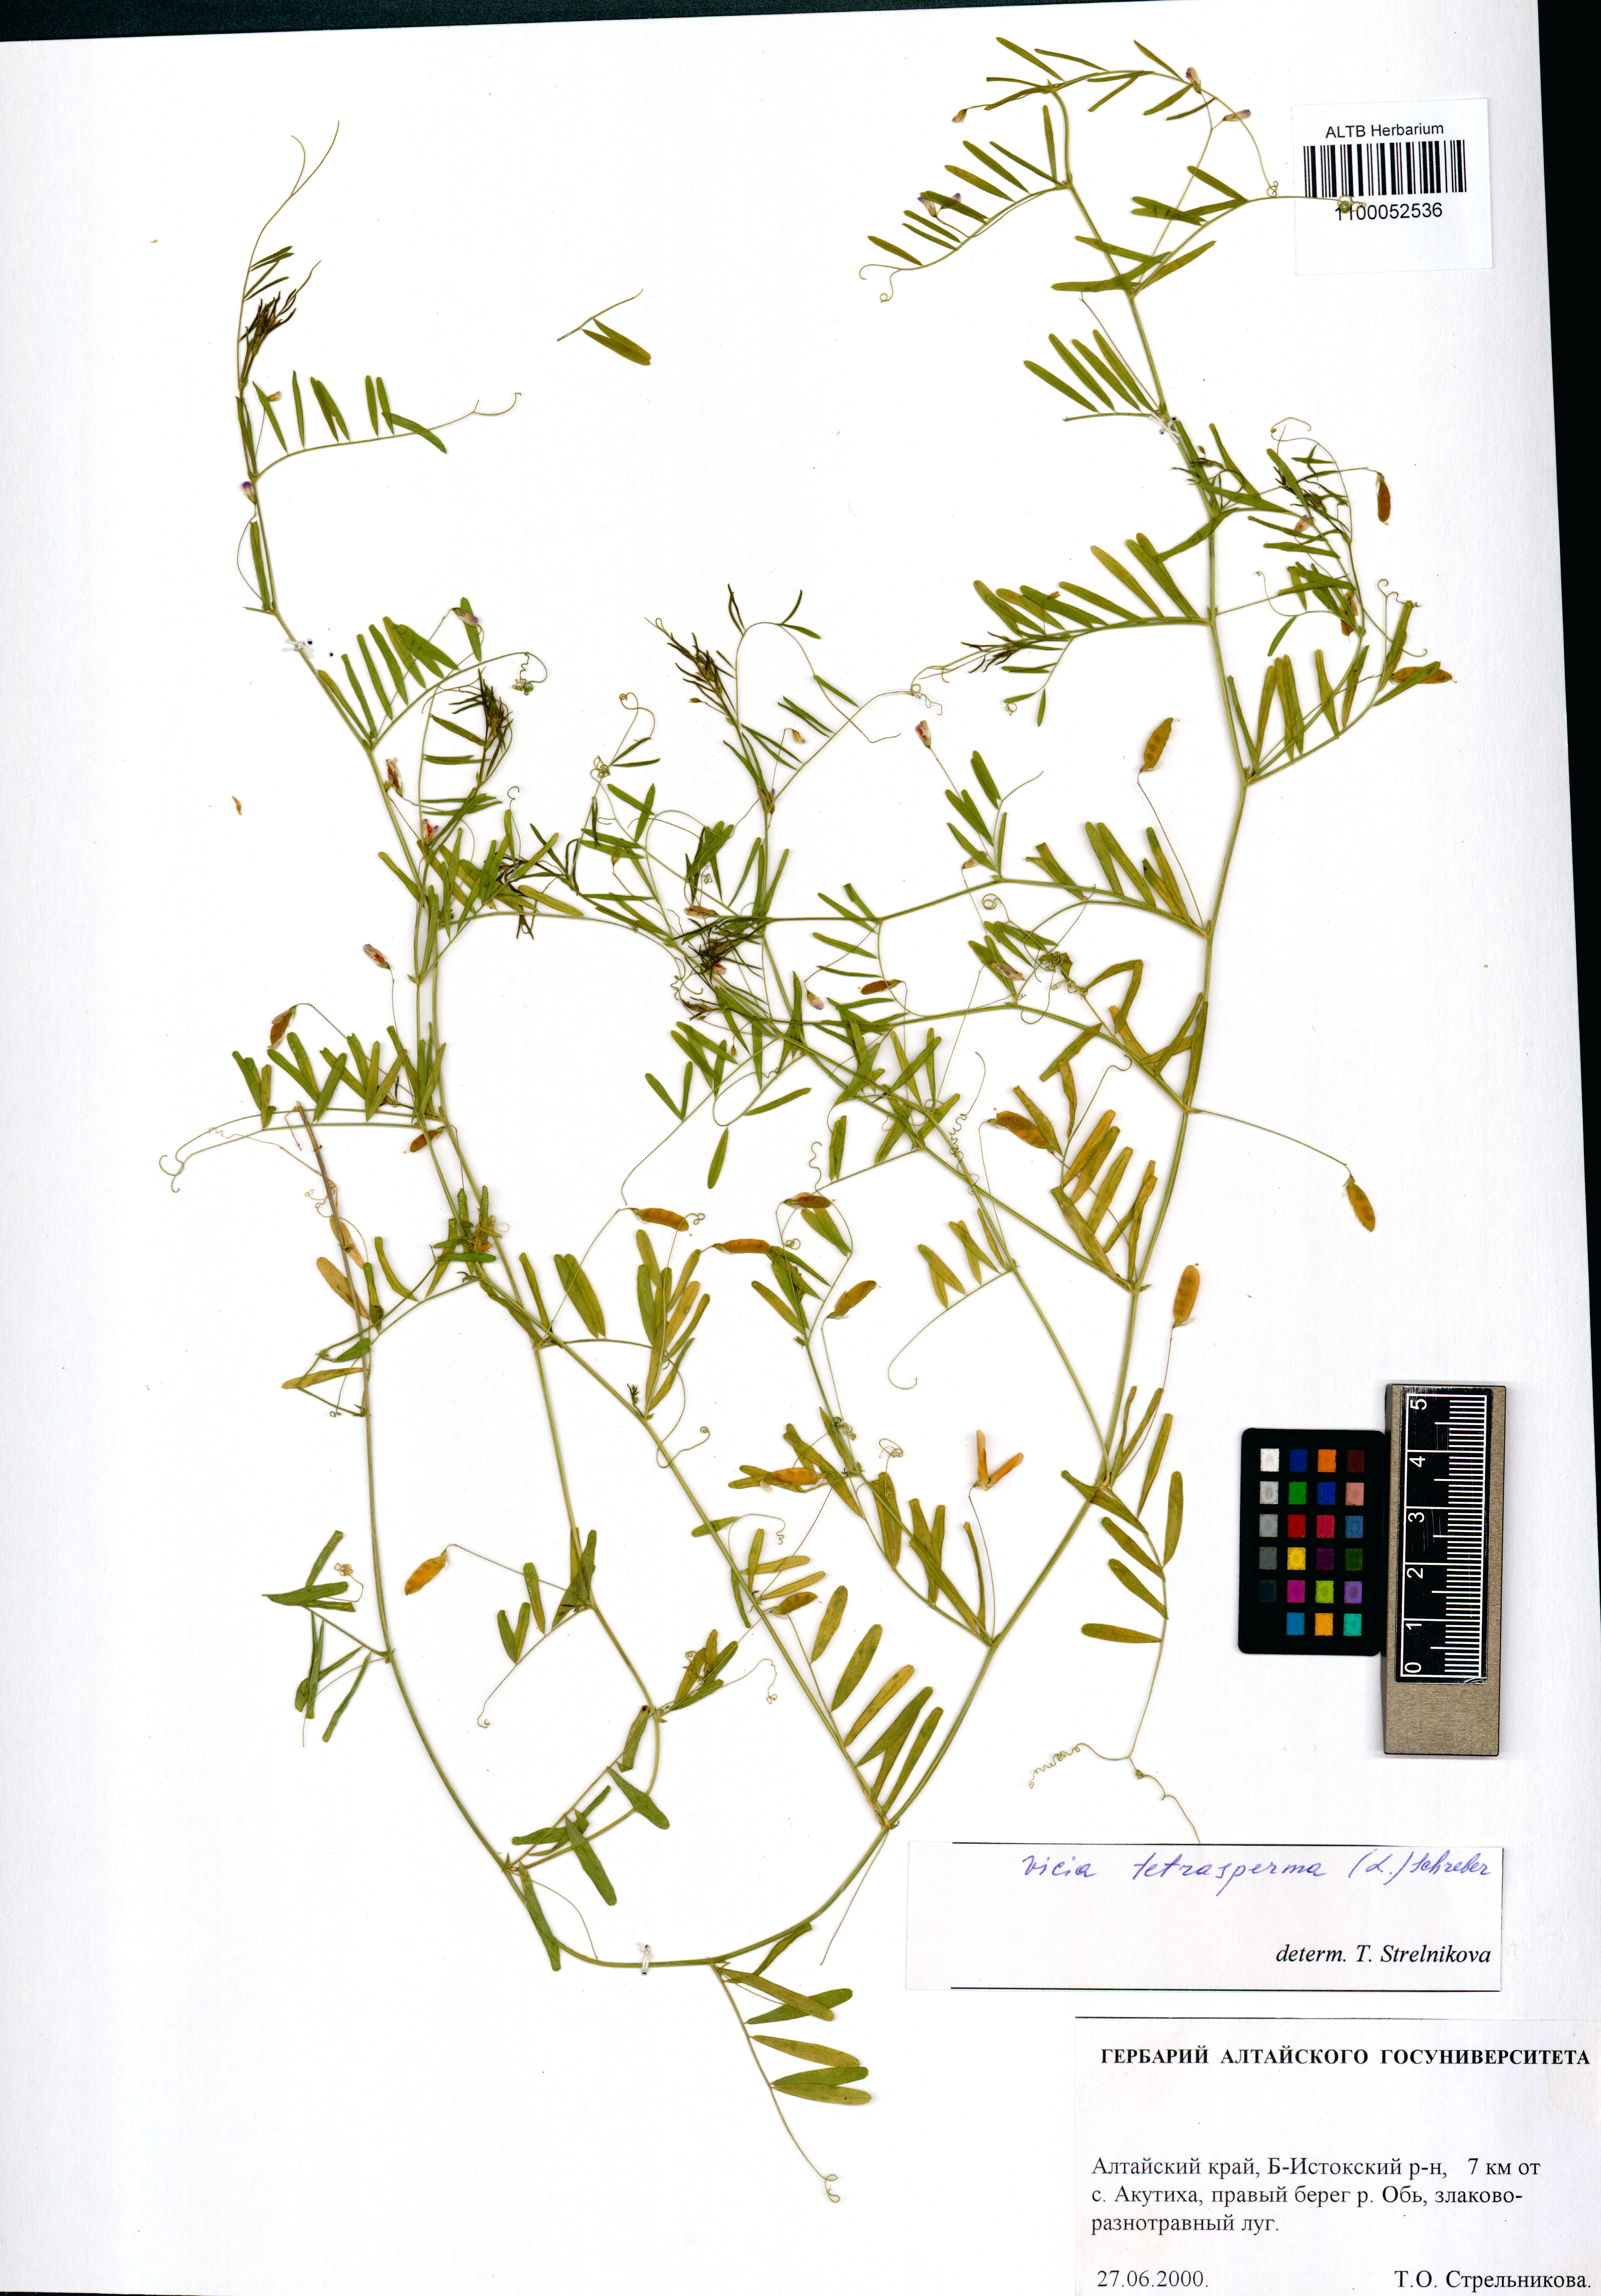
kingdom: Plantae
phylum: Tracheophyta
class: Magnoliopsida
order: Fabales
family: Fabaceae
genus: Vicia
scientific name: Vicia tetrasperma
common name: Smooth tare
